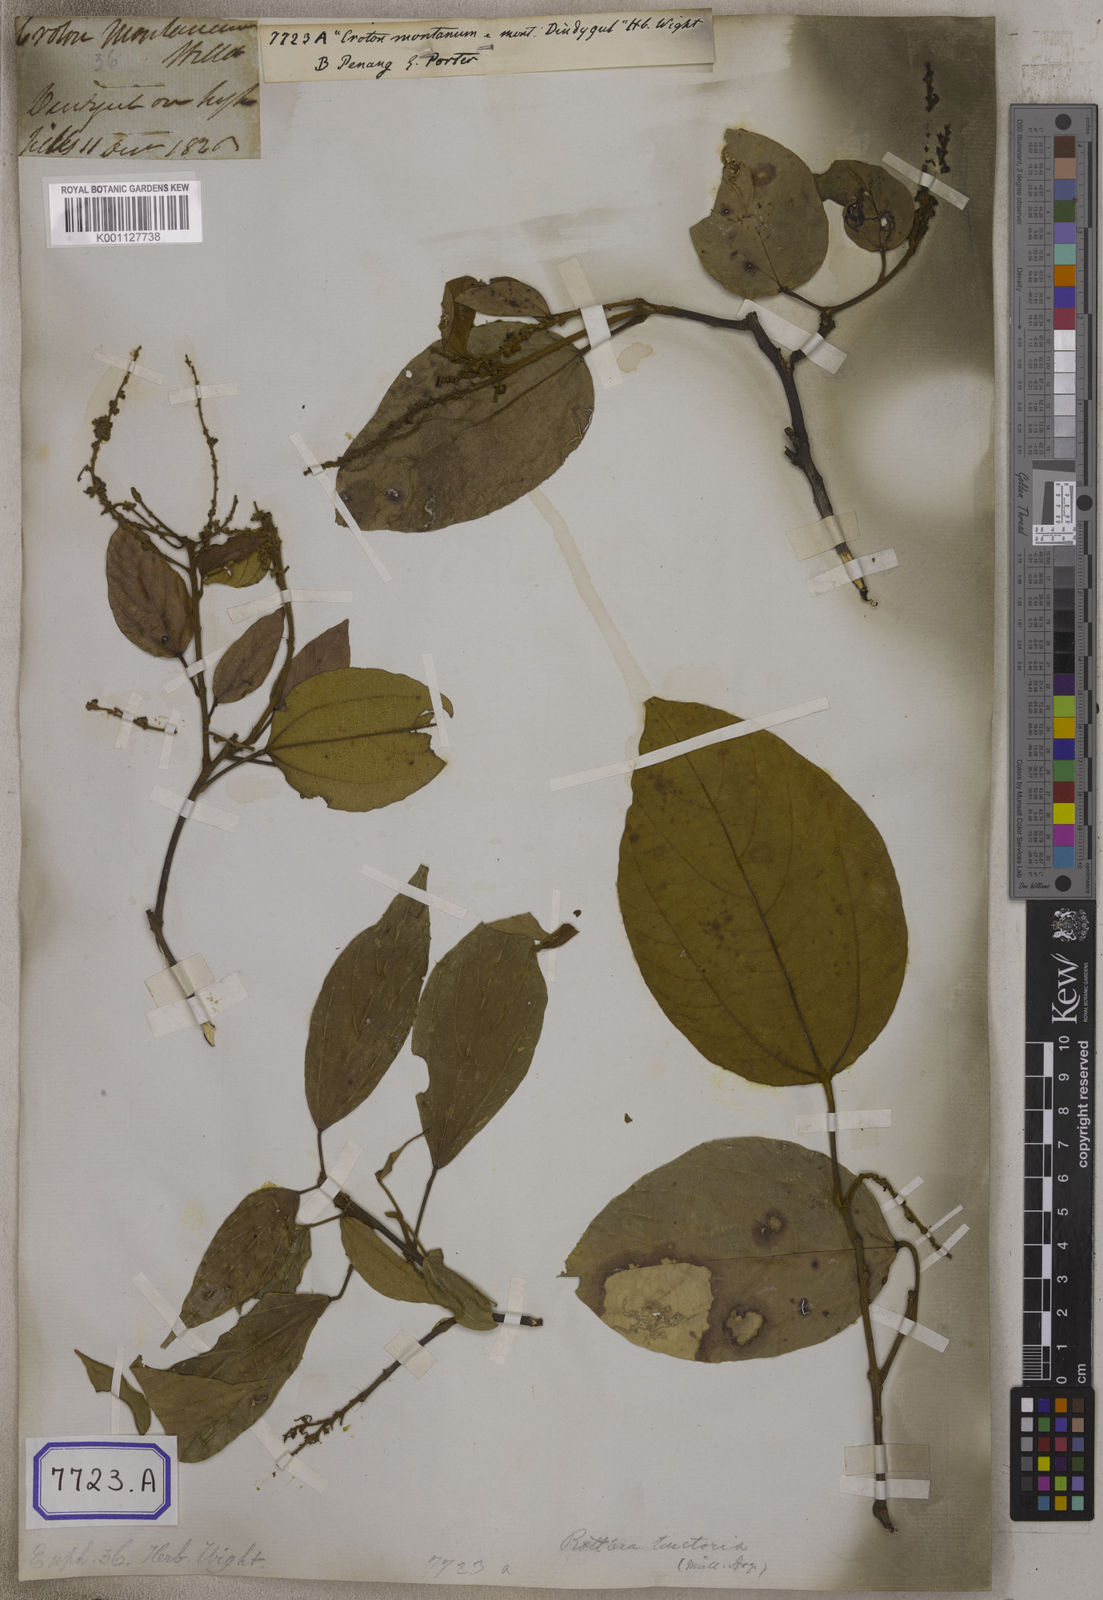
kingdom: Plantae
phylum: Tracheophyta
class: Magnoliopsida
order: Malpighiales
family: Euphorbiaceae
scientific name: Euphorbiaceae
